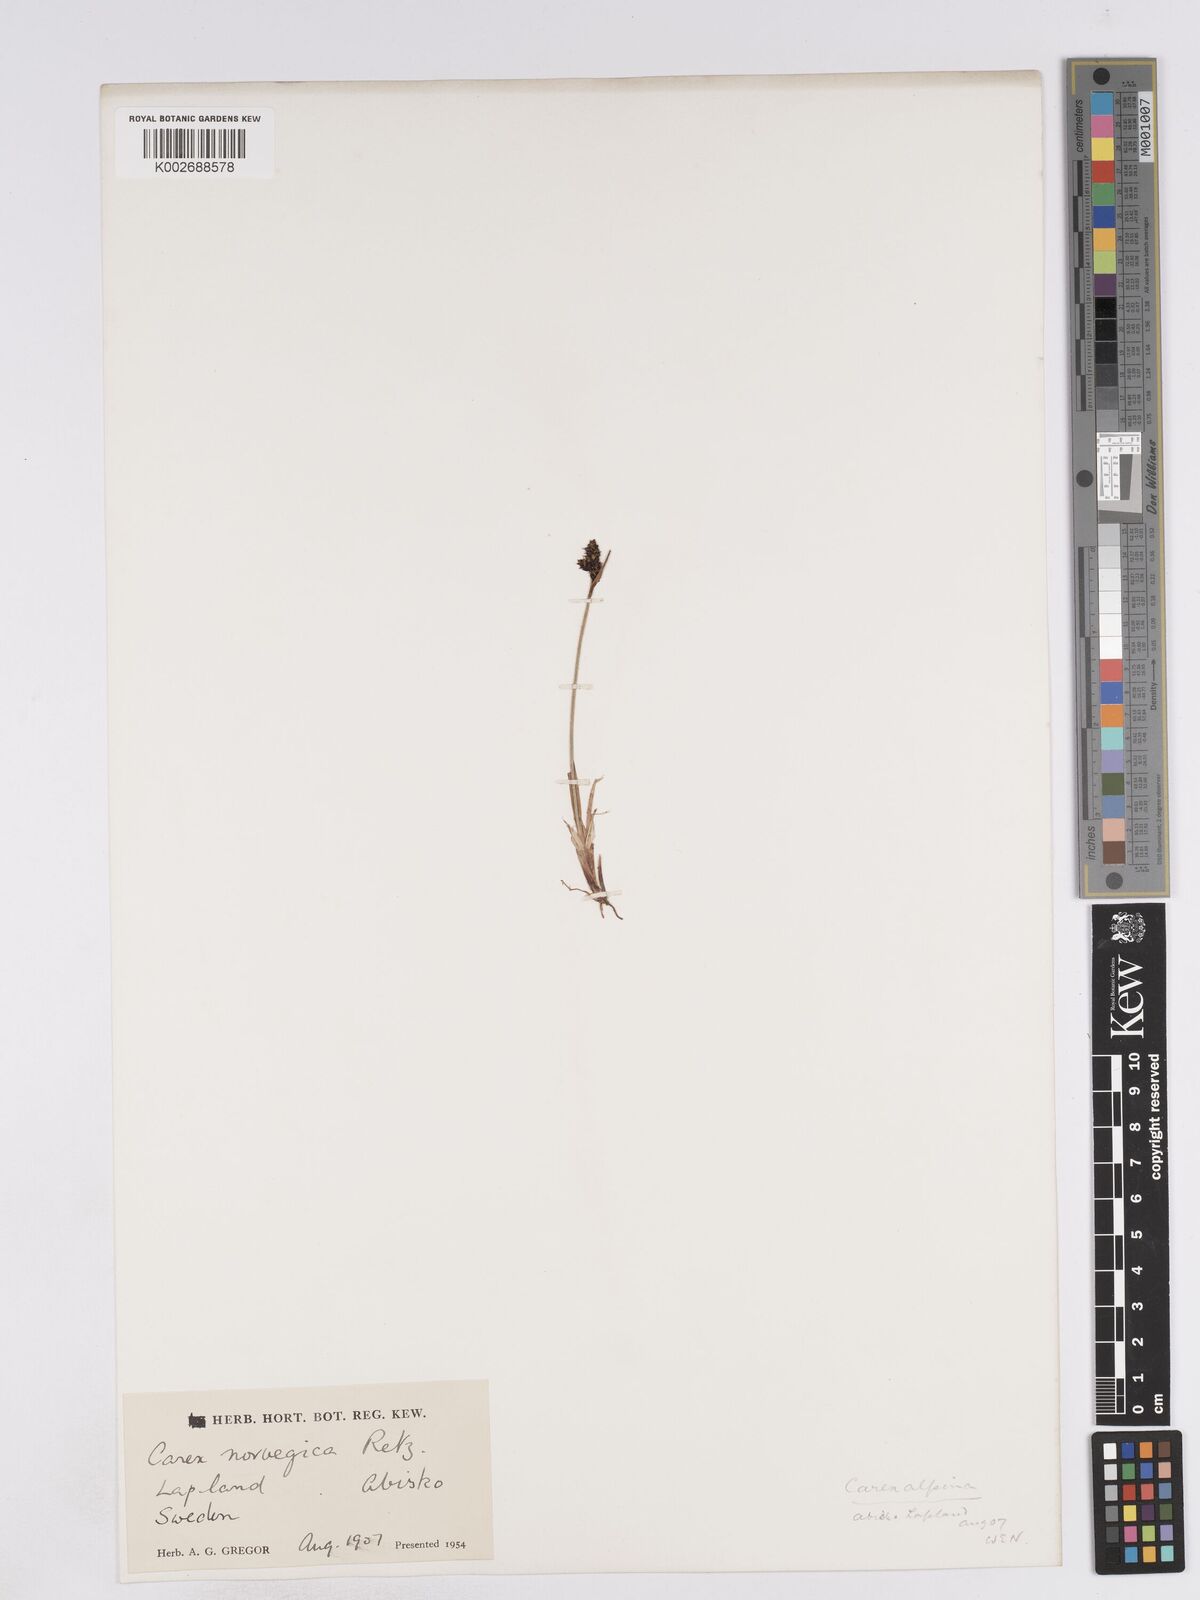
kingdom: Plantae
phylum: Tracheophyta
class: Liliopsida
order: Poales
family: Cyperaceae
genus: Carex
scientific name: Carex norvegica
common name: Close-headed alpine-sedge
